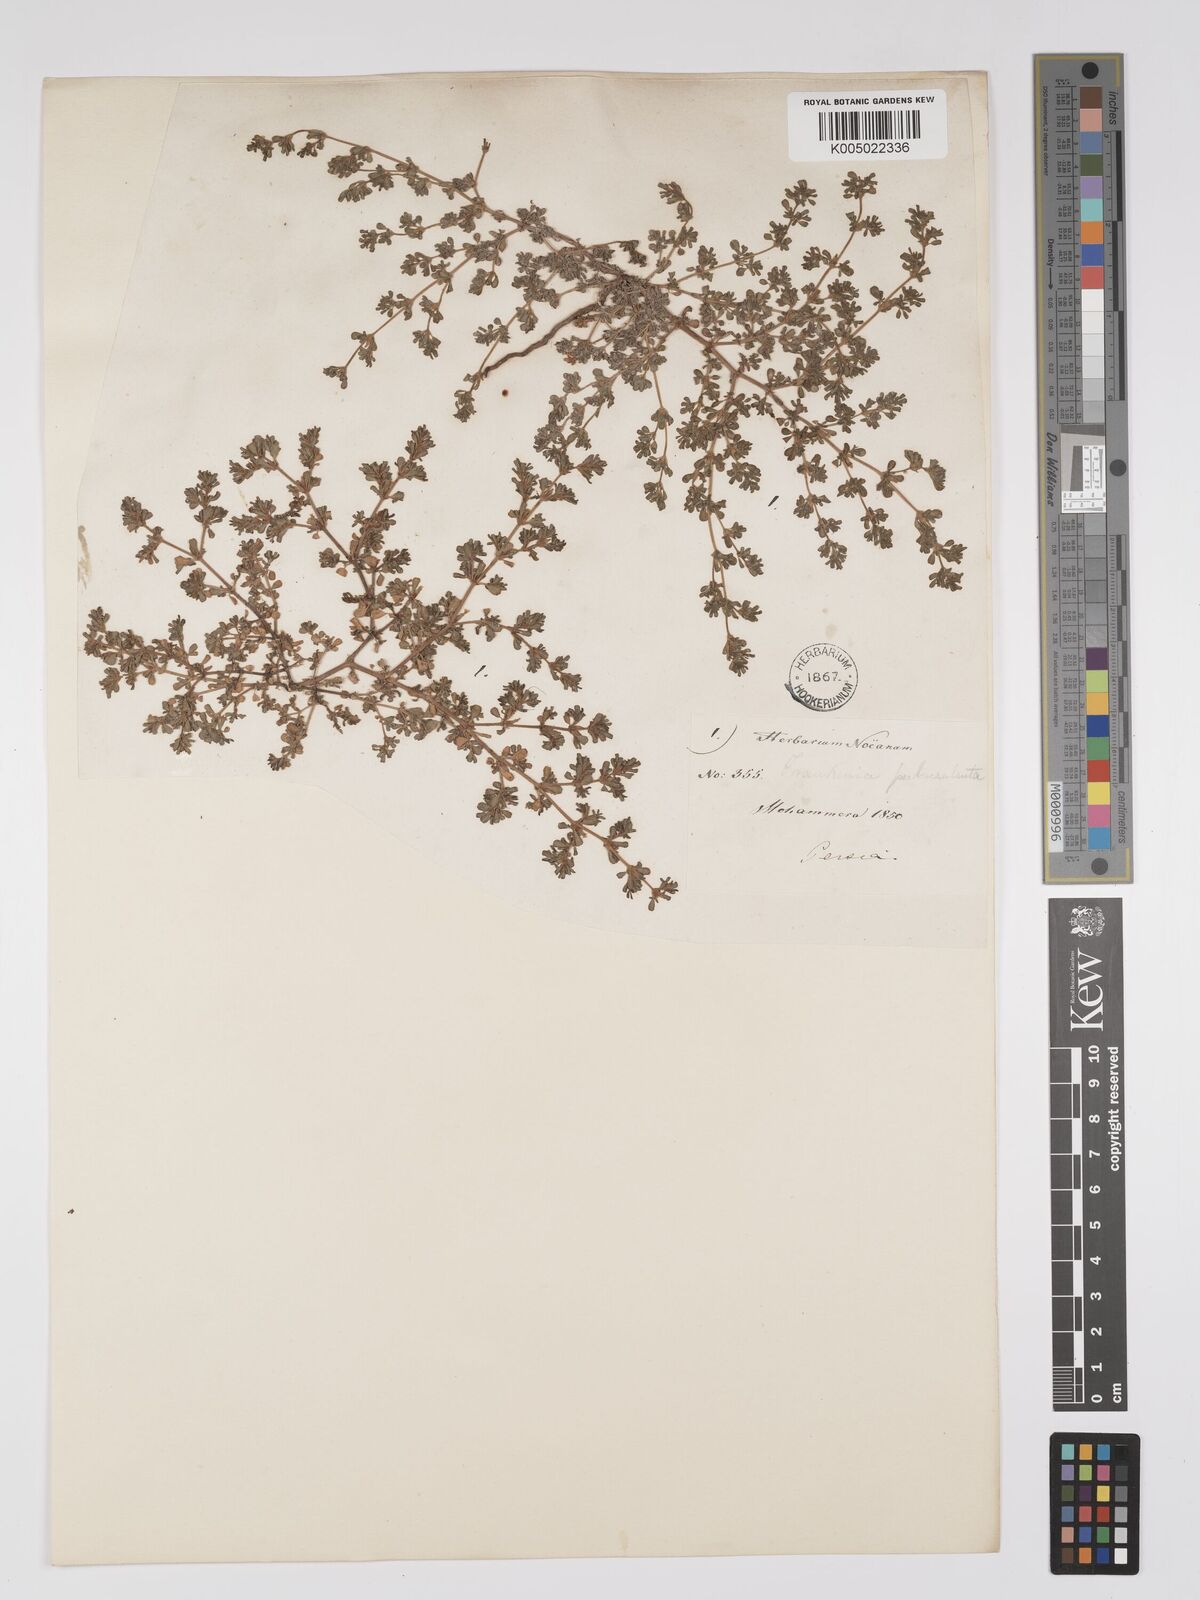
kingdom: Plantae
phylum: Tracheophyta
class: Magnoliopsida
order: Caryophyllales
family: Frankeniaceae
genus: Frankenia
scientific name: Frankenia pulverulenta
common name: European seaheath
